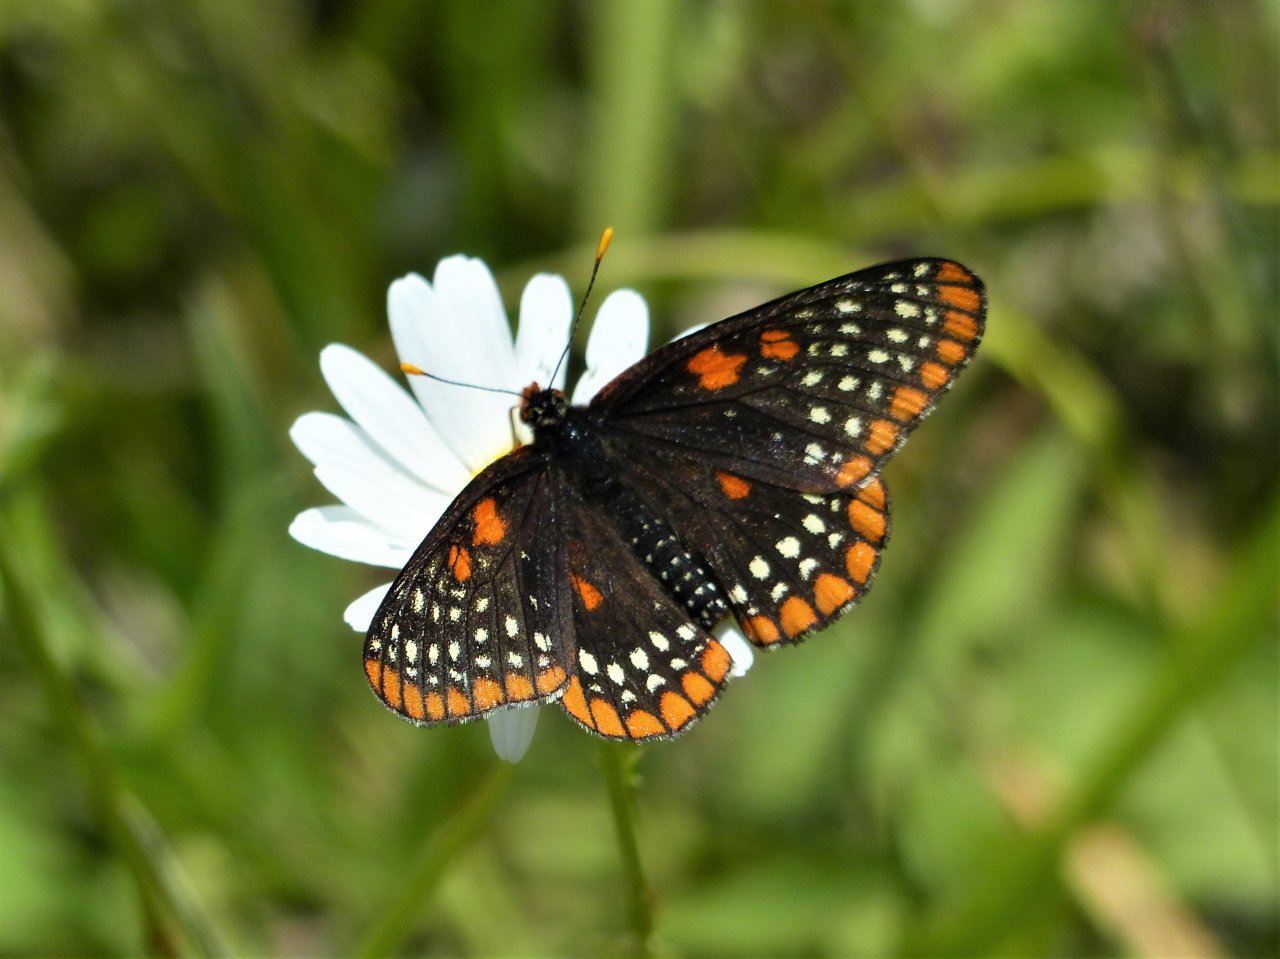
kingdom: Animalia
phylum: Arthropoda
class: Insecta
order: Lepidoptera
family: Nymphalidae
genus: Euphydryas
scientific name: Euphydryas phaeton
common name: Baltimore Checkerspot
